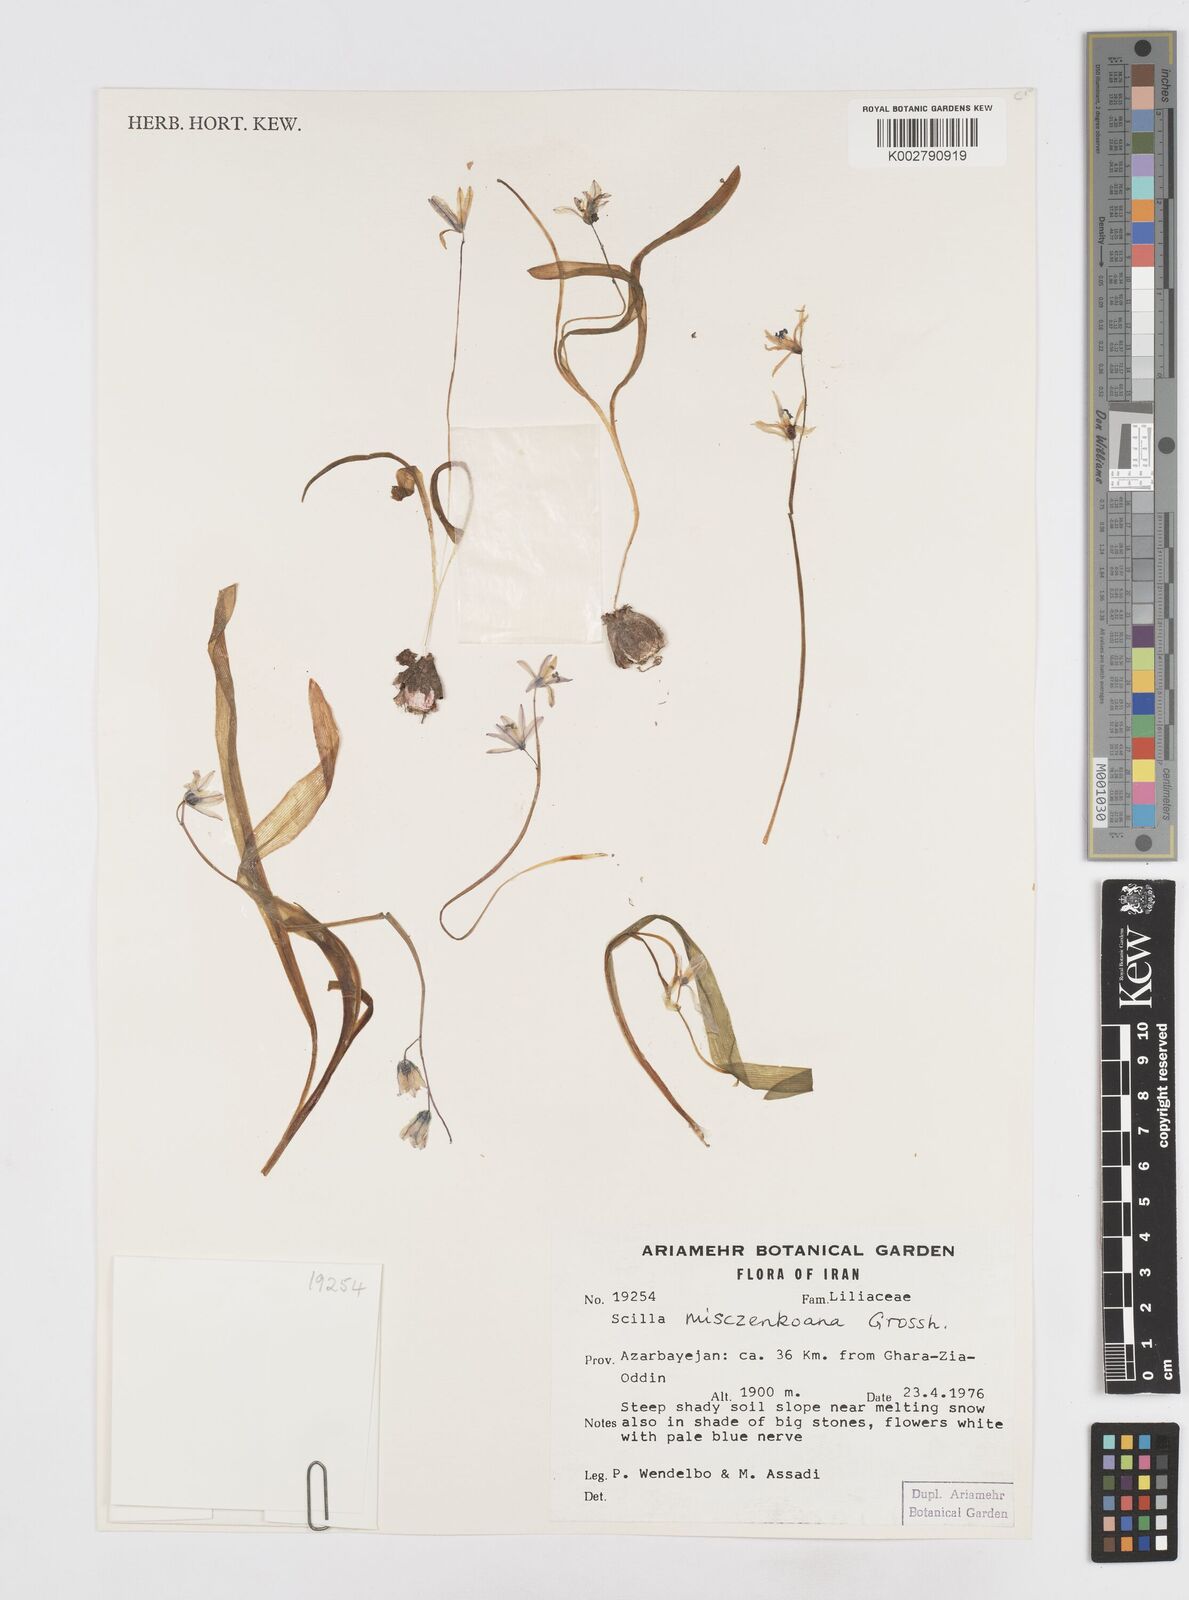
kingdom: Plantae
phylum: Tracheophyta
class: Liliopsida
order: Asparagales
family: Asparagaceae
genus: Scilla
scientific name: Scilla mischtschenkoana
